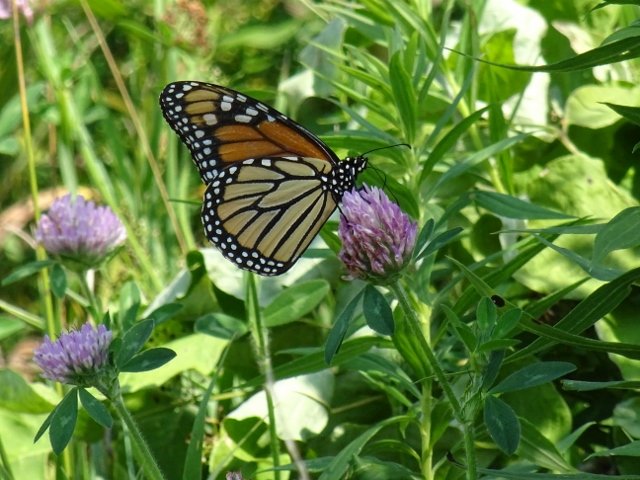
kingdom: Animalia
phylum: Arthropoda
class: Insecta
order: Lepidoptera
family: Nymphalidae
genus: Danaus
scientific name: Danaus plexippus
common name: Monarch
